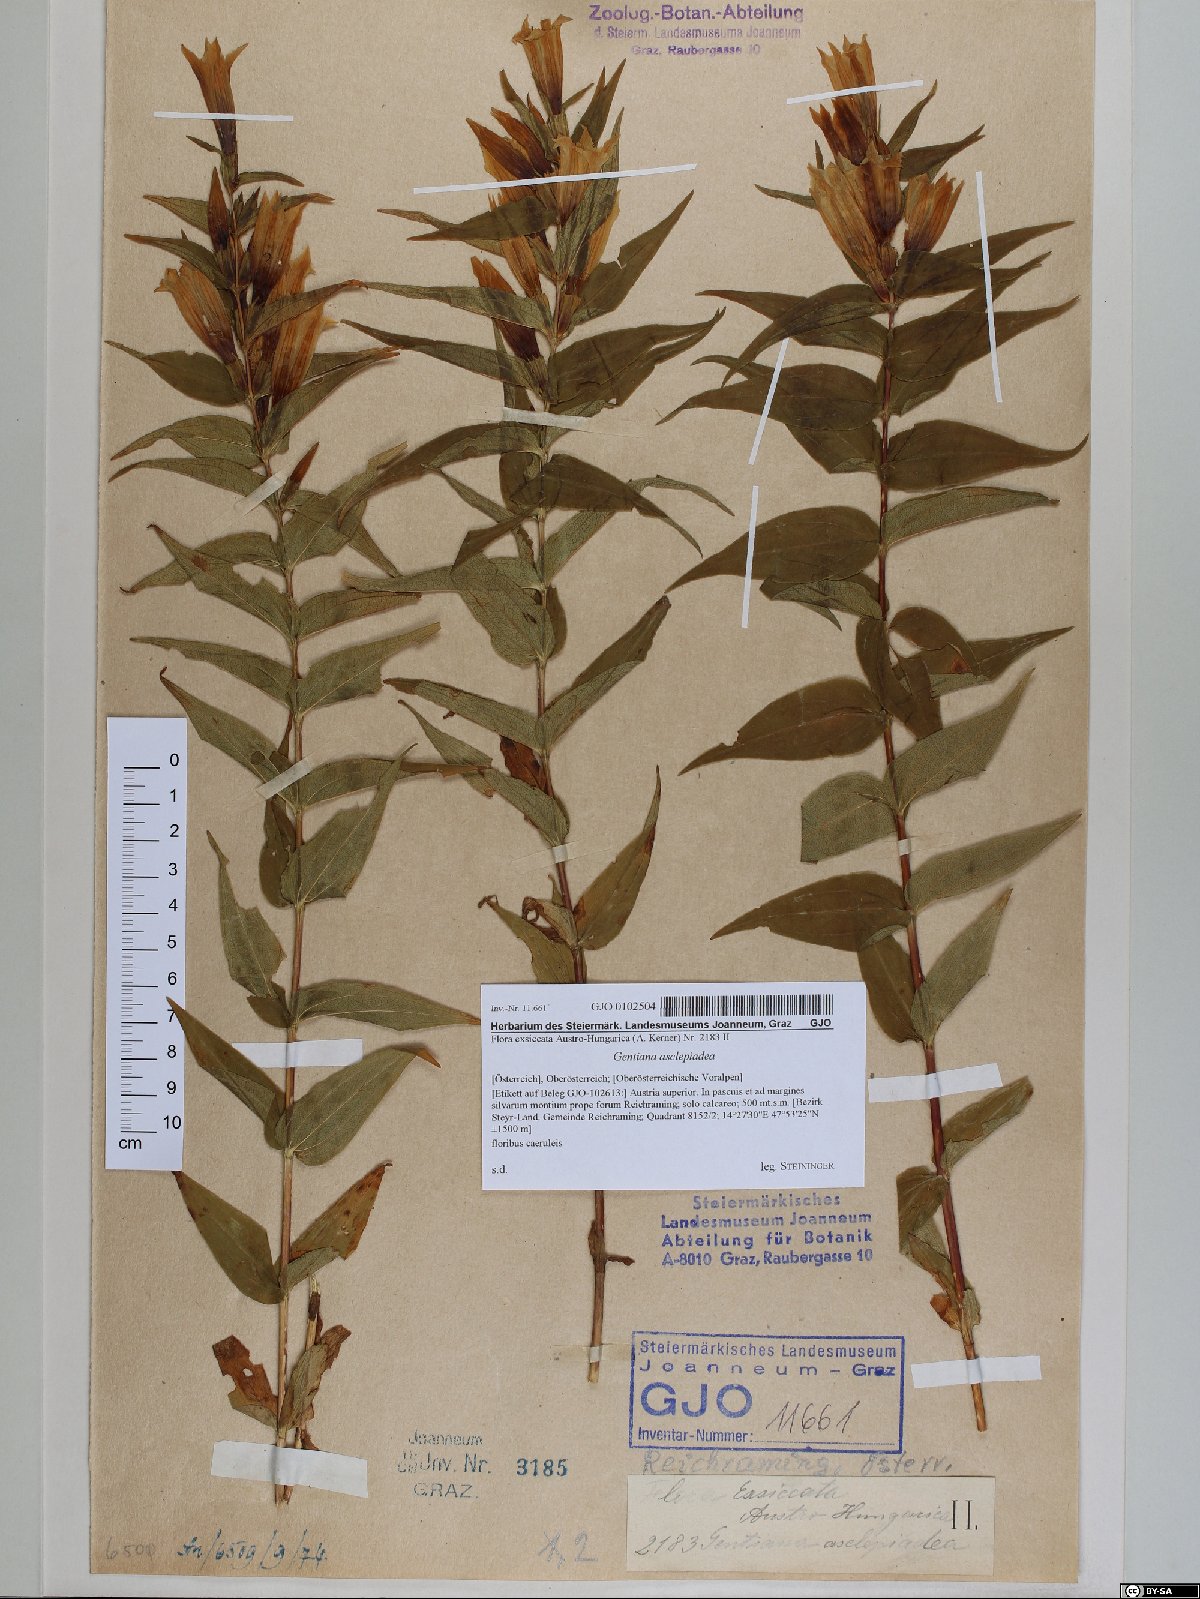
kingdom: Plantae
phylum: Tracheophyta
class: Magnoliopsida
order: Gentianales
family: Gentianaceae
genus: Gentiana
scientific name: Gentiana asclepiadea
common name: Willow gentian
